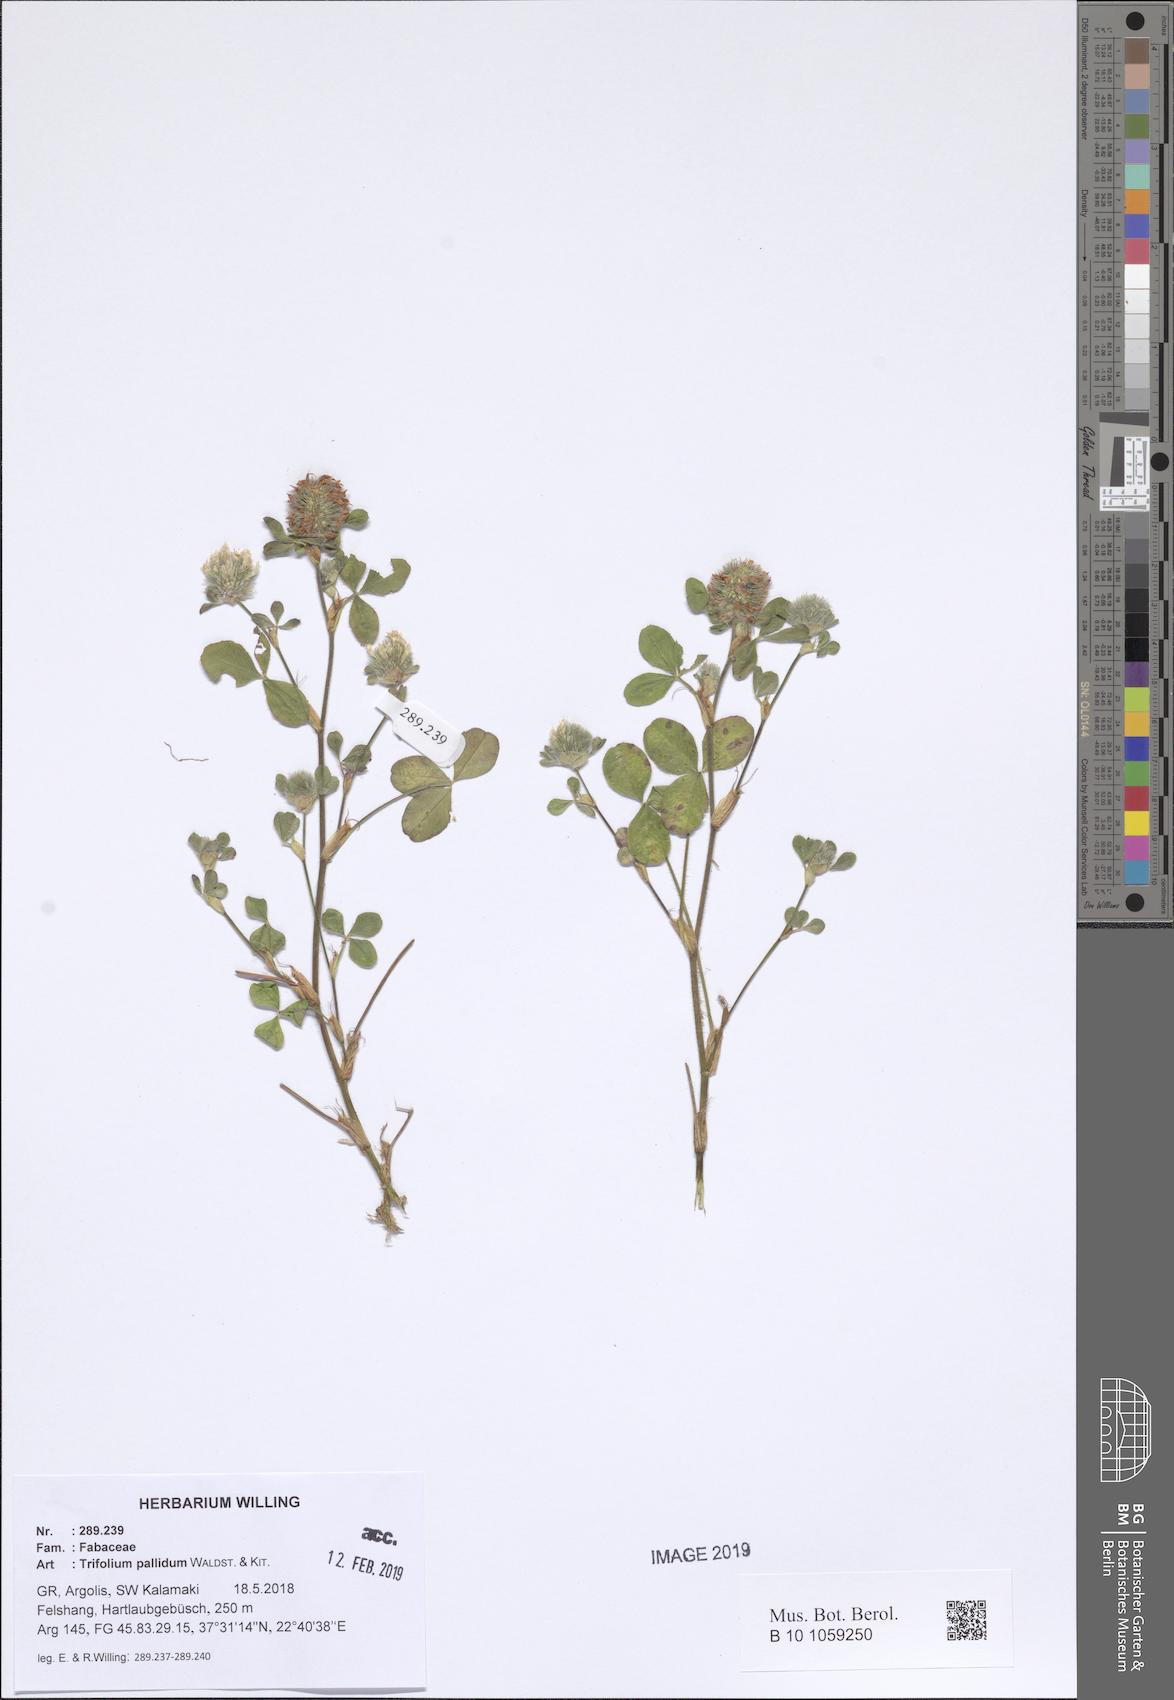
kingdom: Plantae
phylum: Tracheophyta
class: Magnoliopsida
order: Fabales
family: Fabaceae
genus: Trifolium
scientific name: Trifolium pallidum
